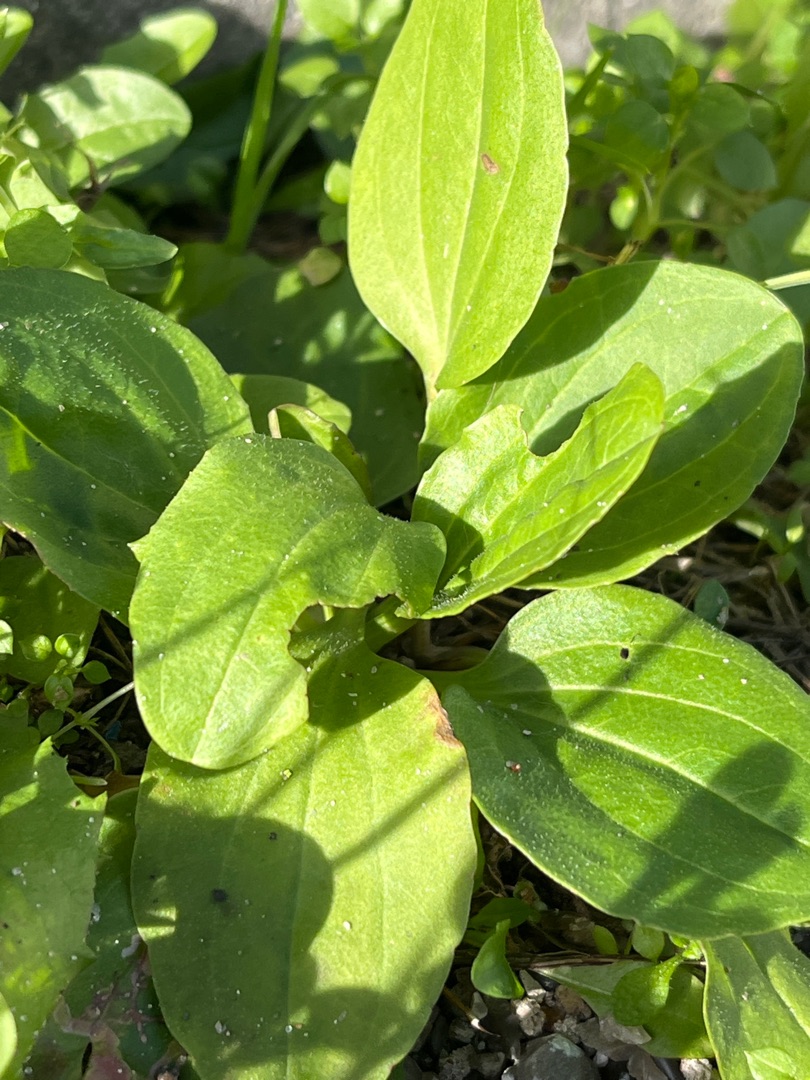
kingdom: Plantae
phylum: Tracheophyta
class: Magnoliopsida
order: Lamiales
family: Plantaginaceae
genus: Plantago
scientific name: Plantago major
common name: Glat vejbred
